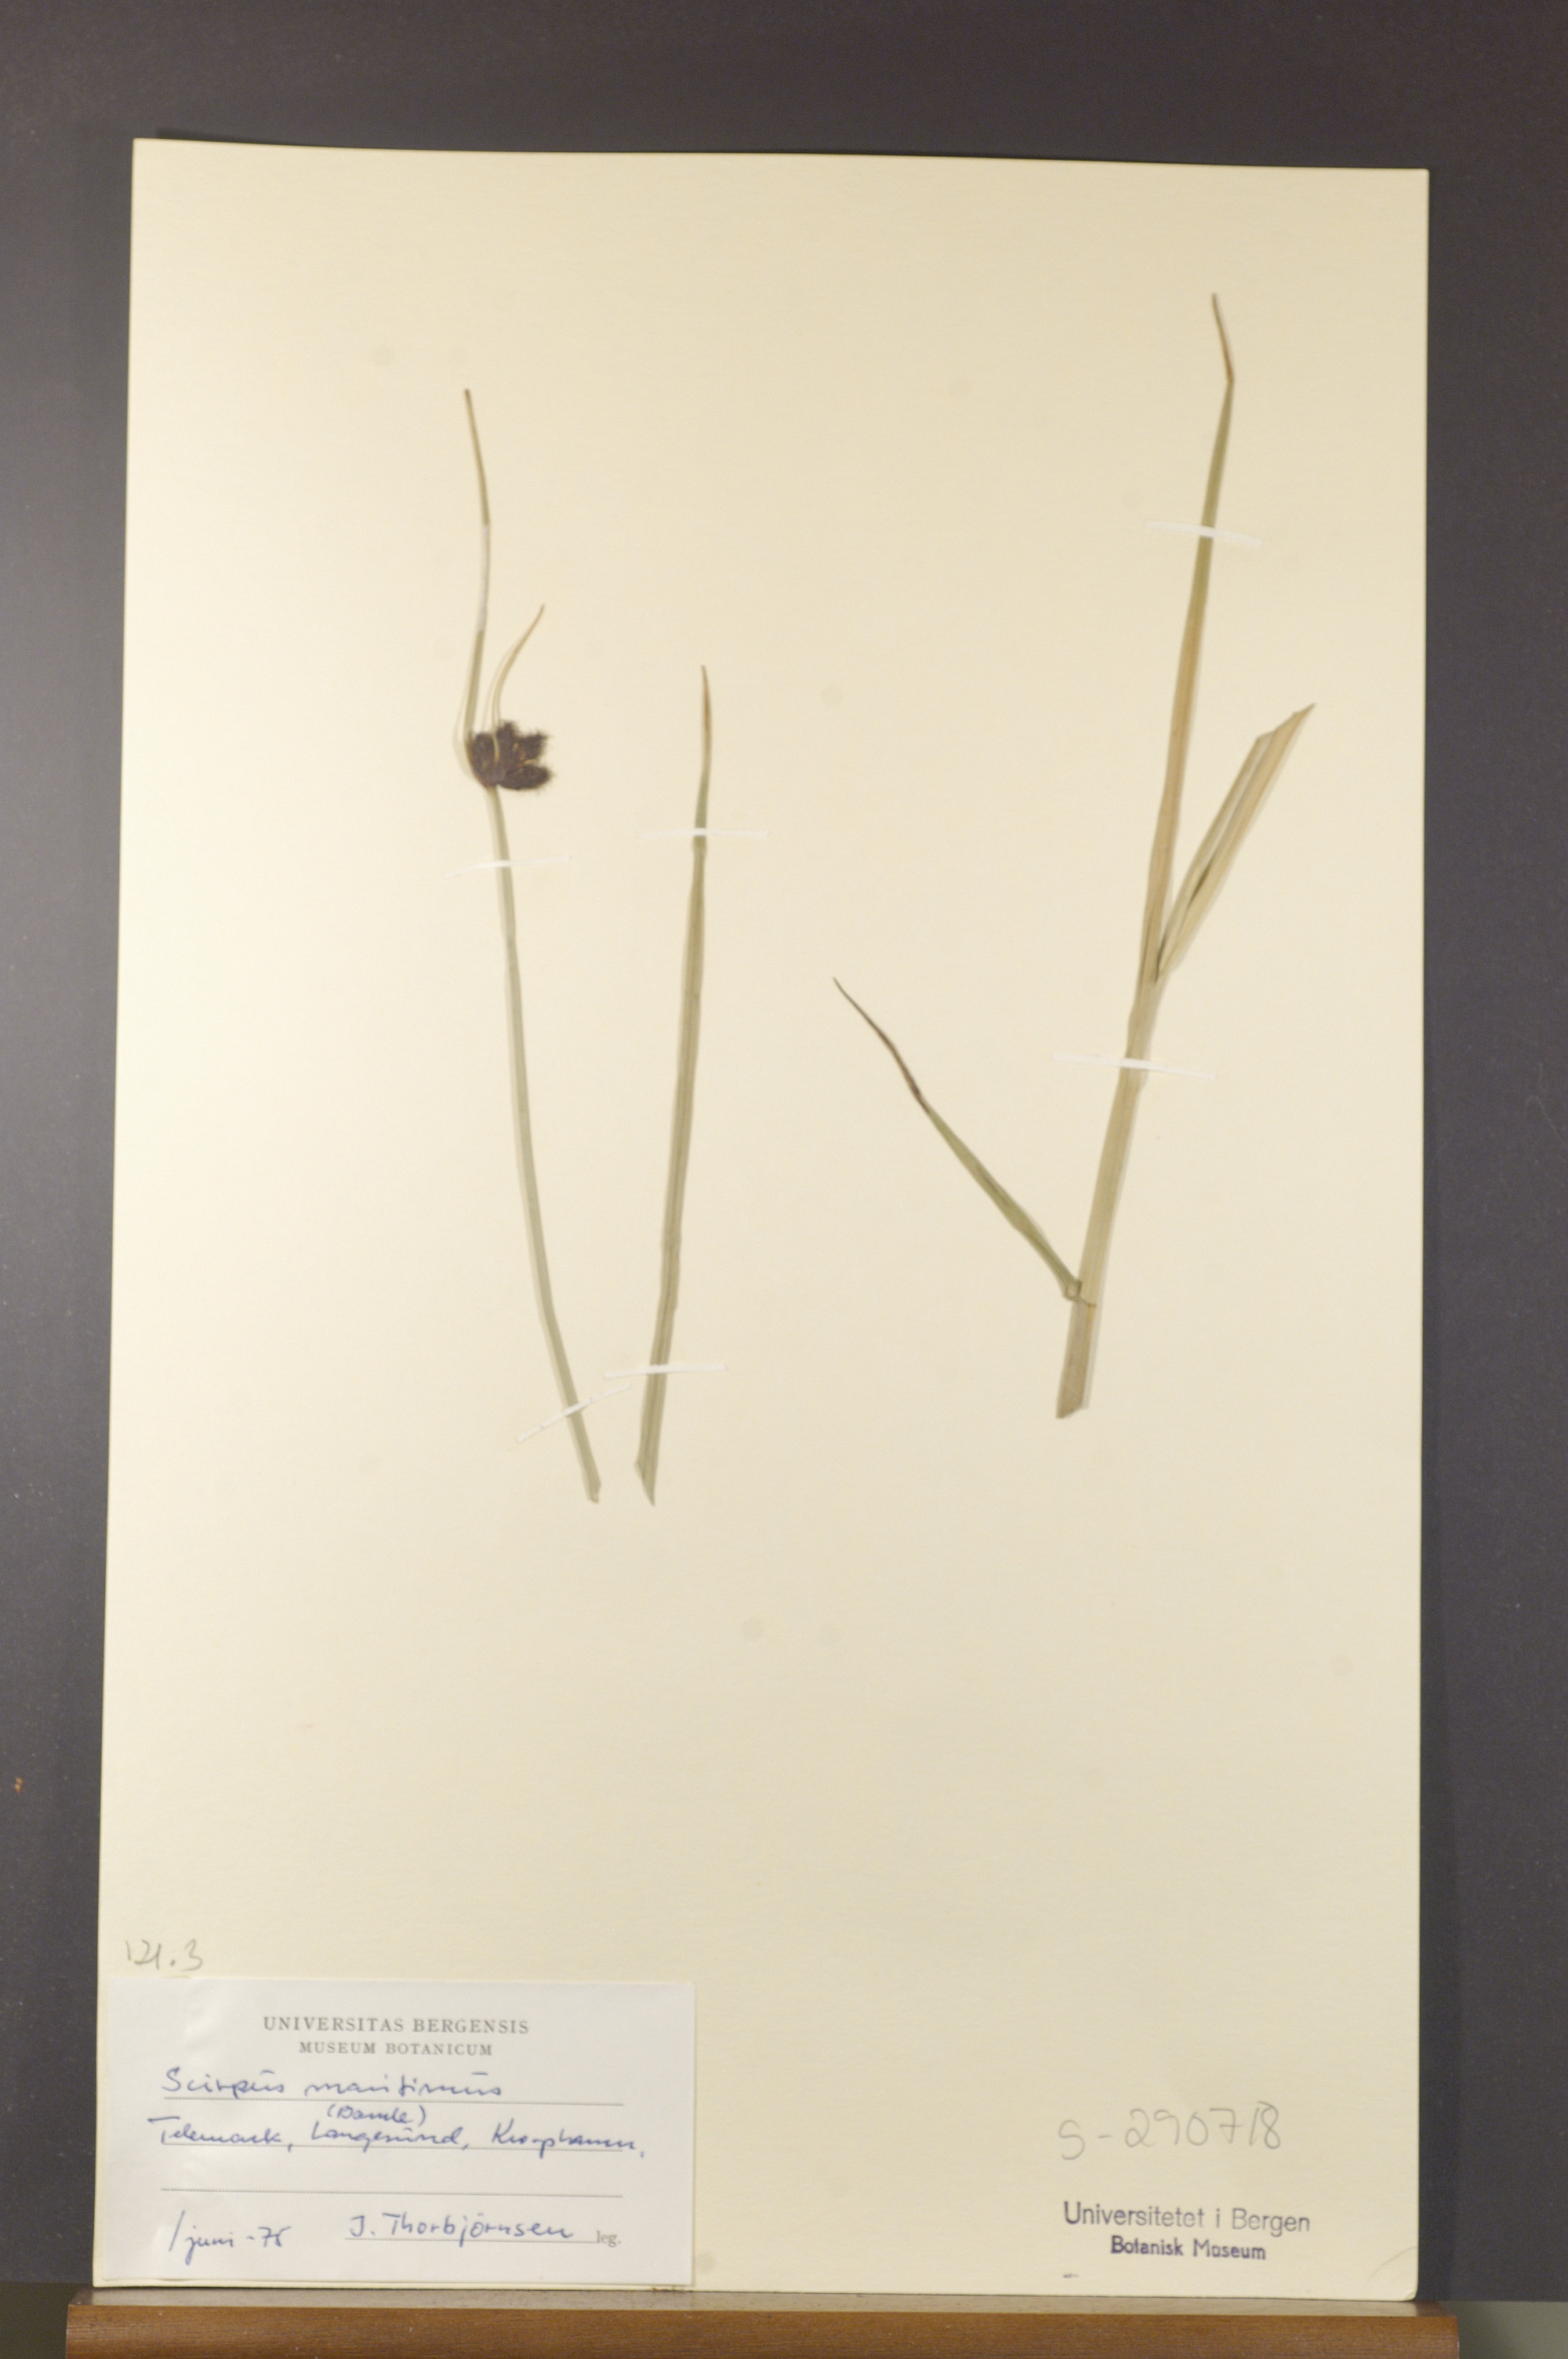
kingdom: Plantae
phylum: Tracheophyta
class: Liliopsida
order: Poales
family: Cyperaceae
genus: Bolboschoenus
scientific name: Bolboschoenus maritimus
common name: Sea club-rush
